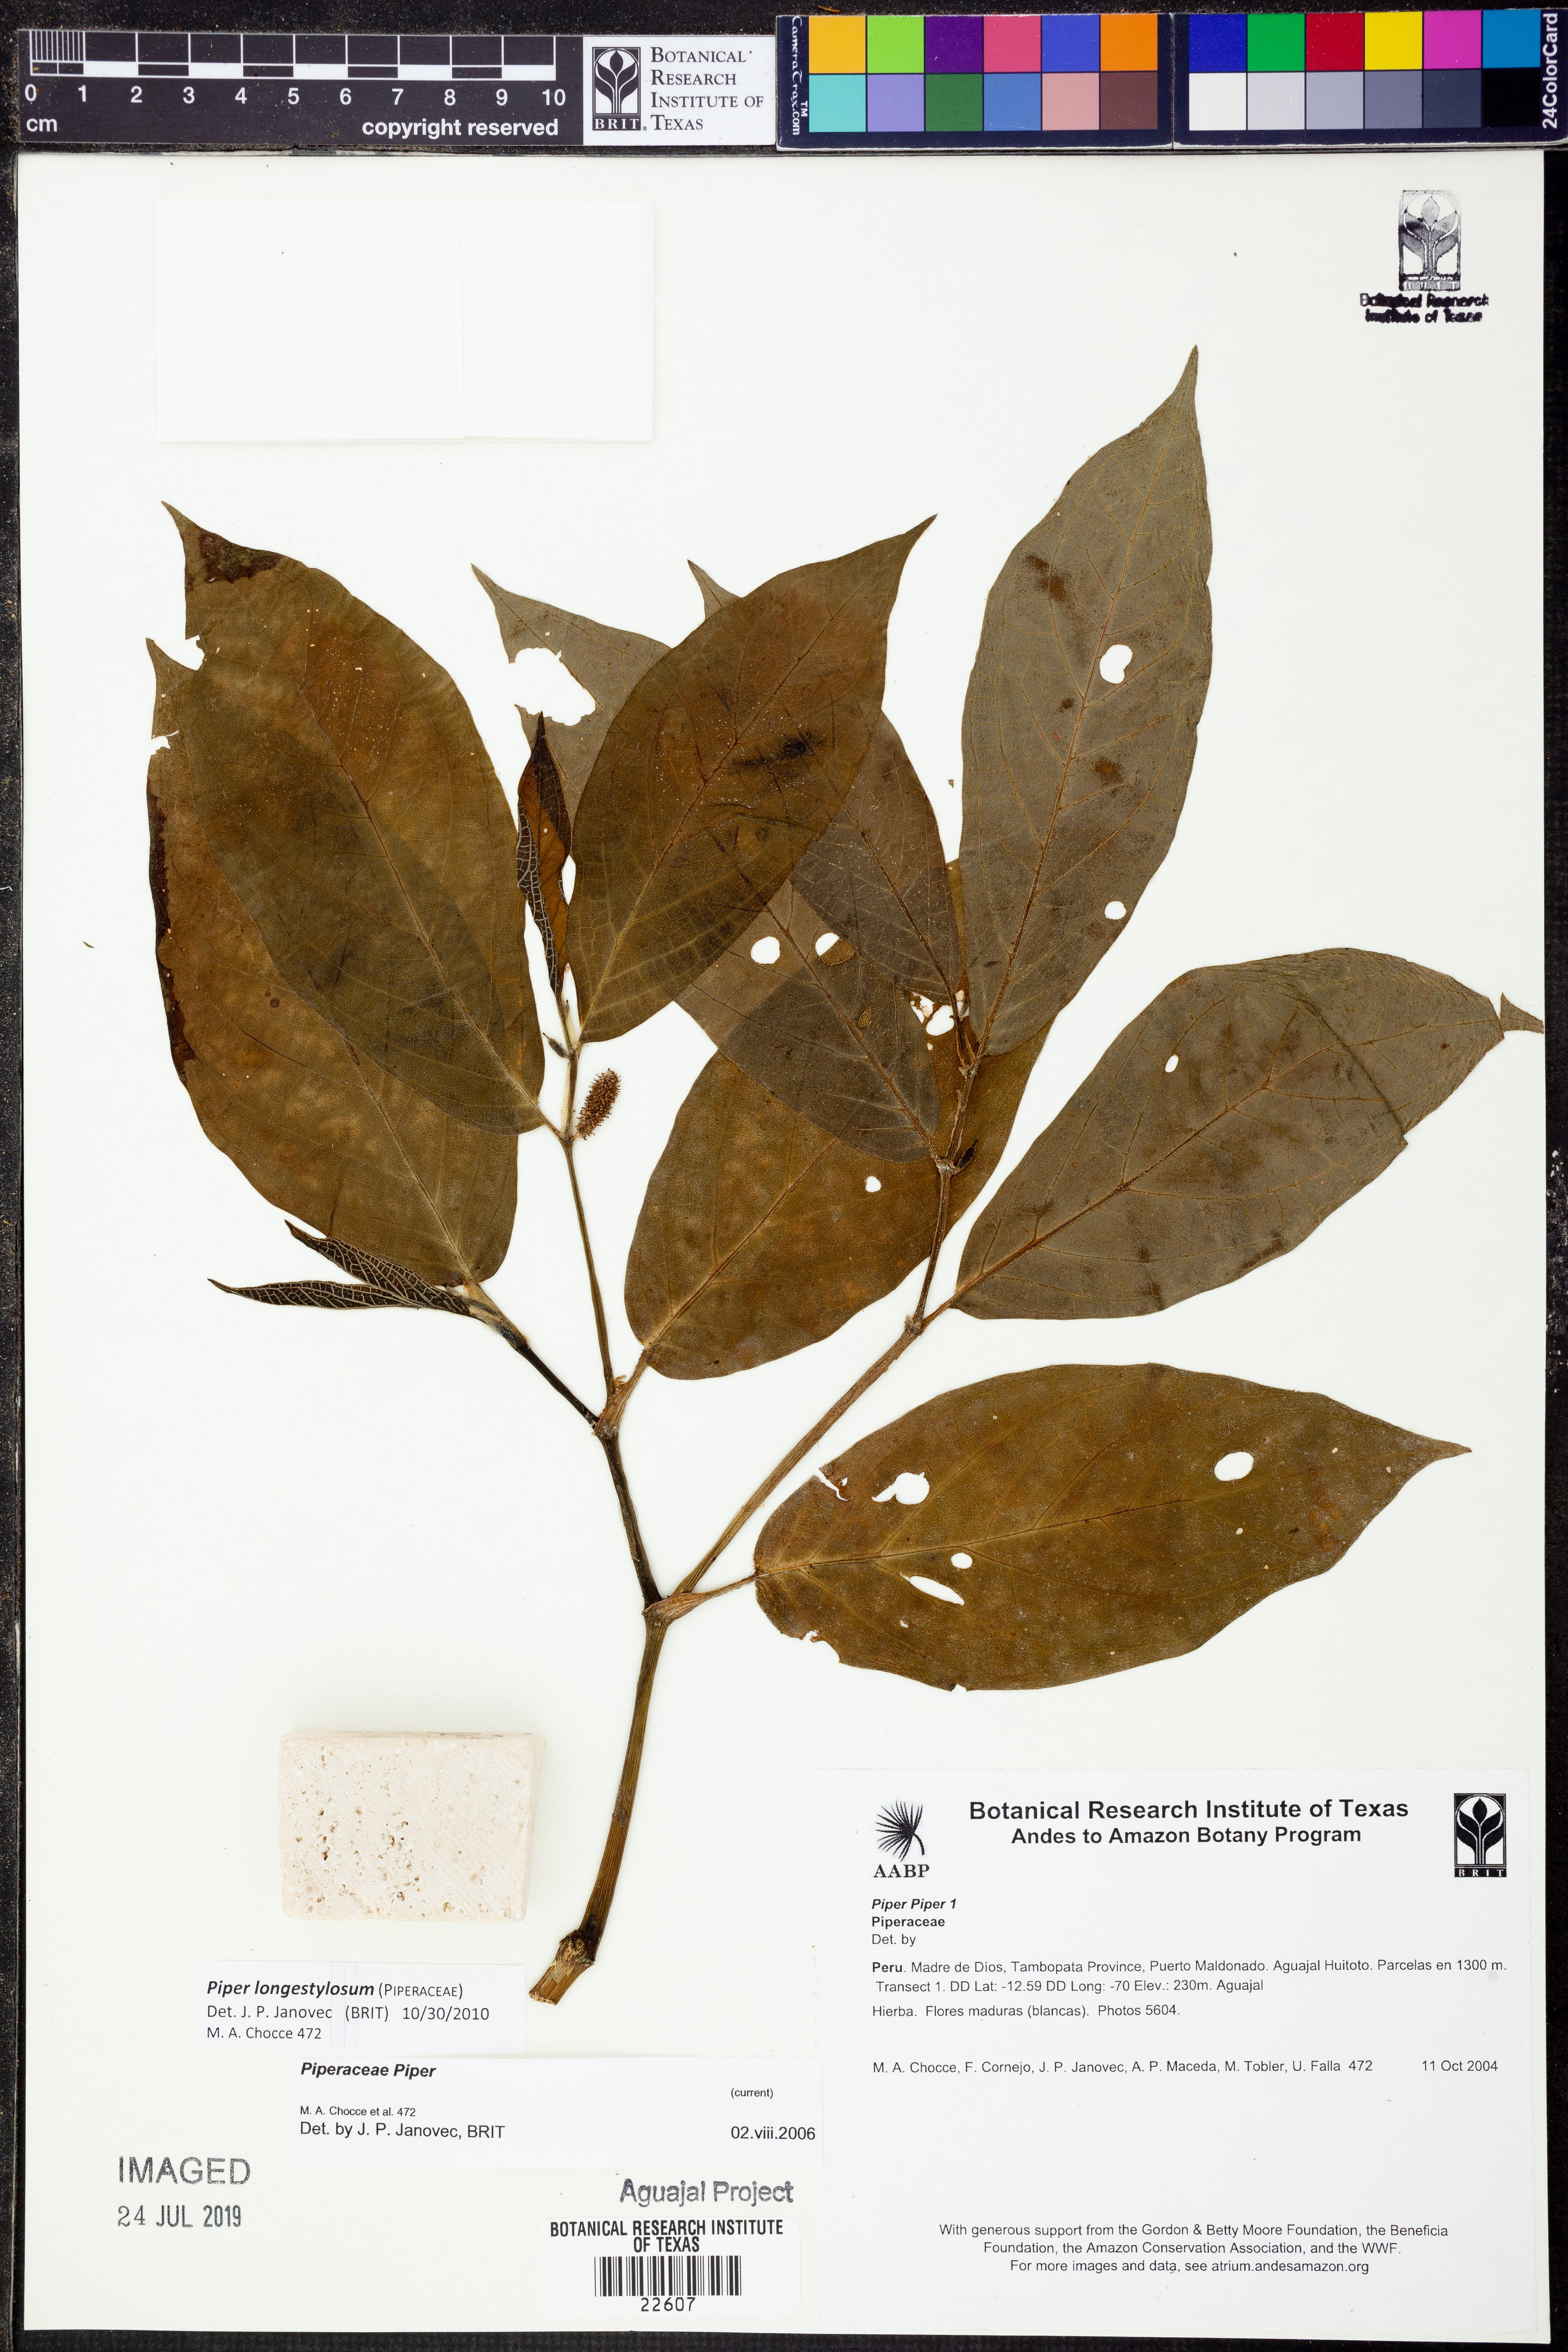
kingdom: Plantae
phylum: Tracheophyta
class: Magnoliopsida
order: Piperales
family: Piperaceae
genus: Piper
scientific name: Piper longestylosum
